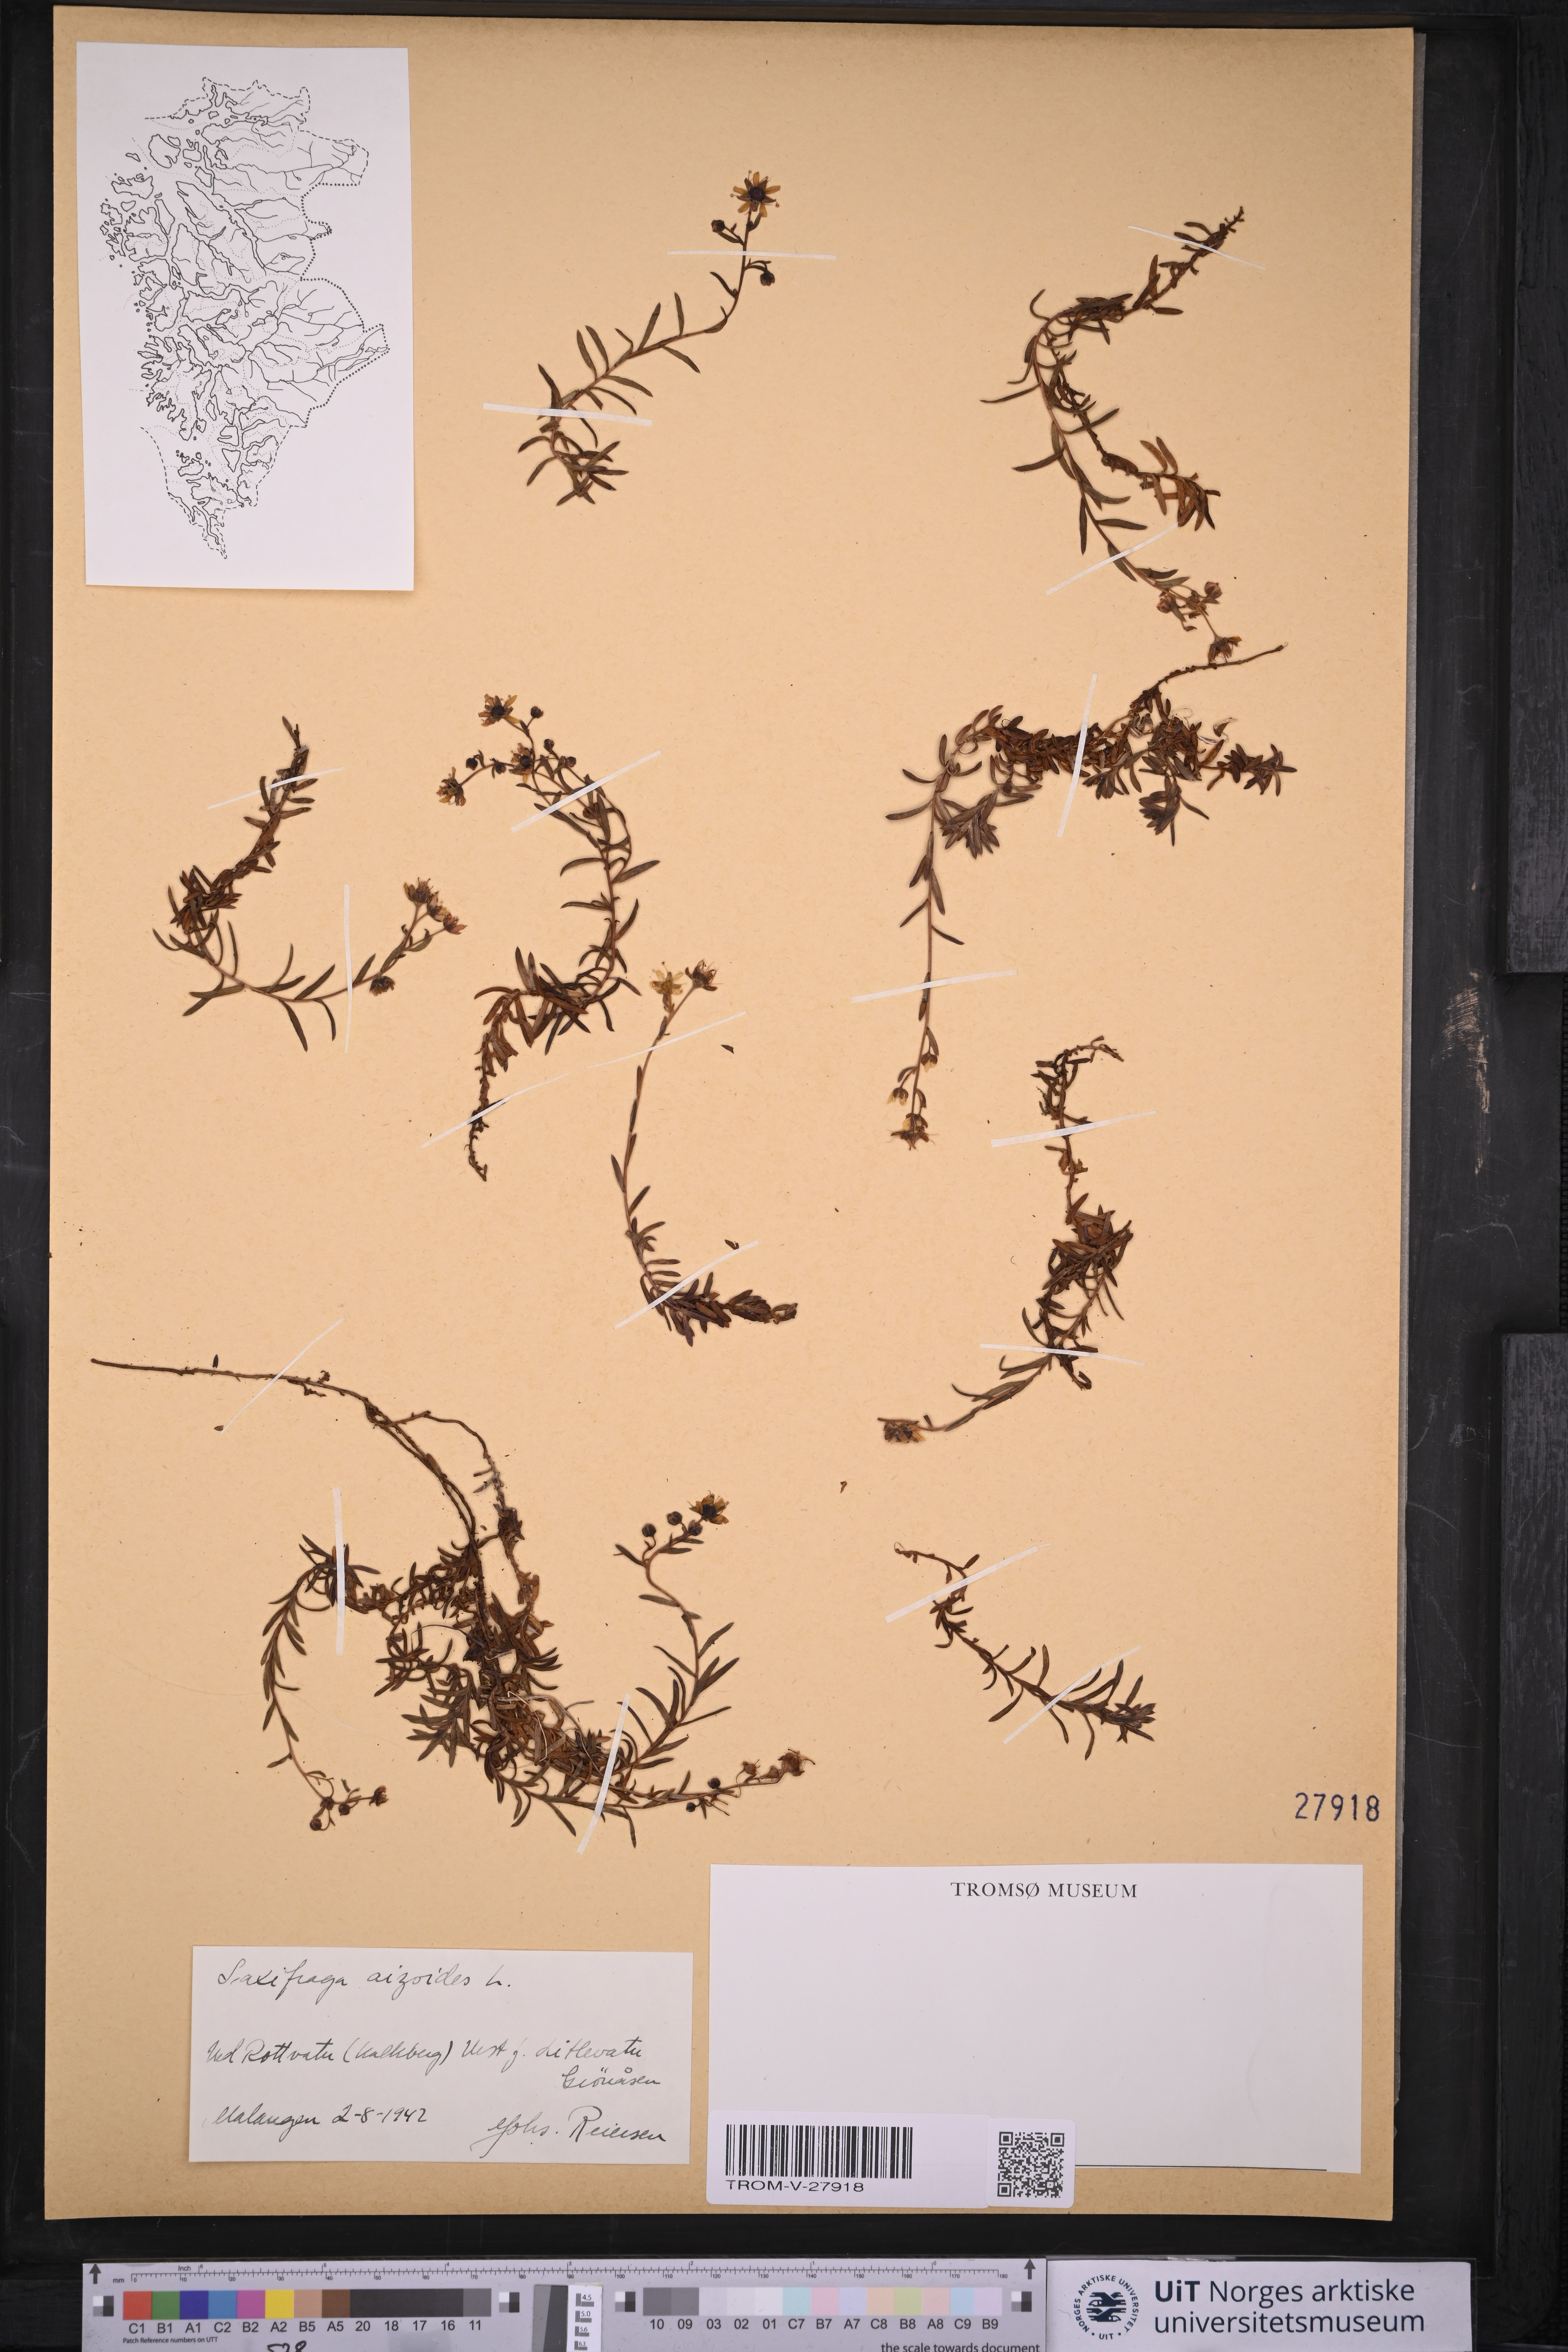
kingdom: Plantae
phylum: Tracheophyta
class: Magnoliopsida
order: Saxifragales
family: Saxifragaceae
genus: Saxifraga
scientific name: Saxifraga aizoides
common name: Yellow mountain saxifrage
